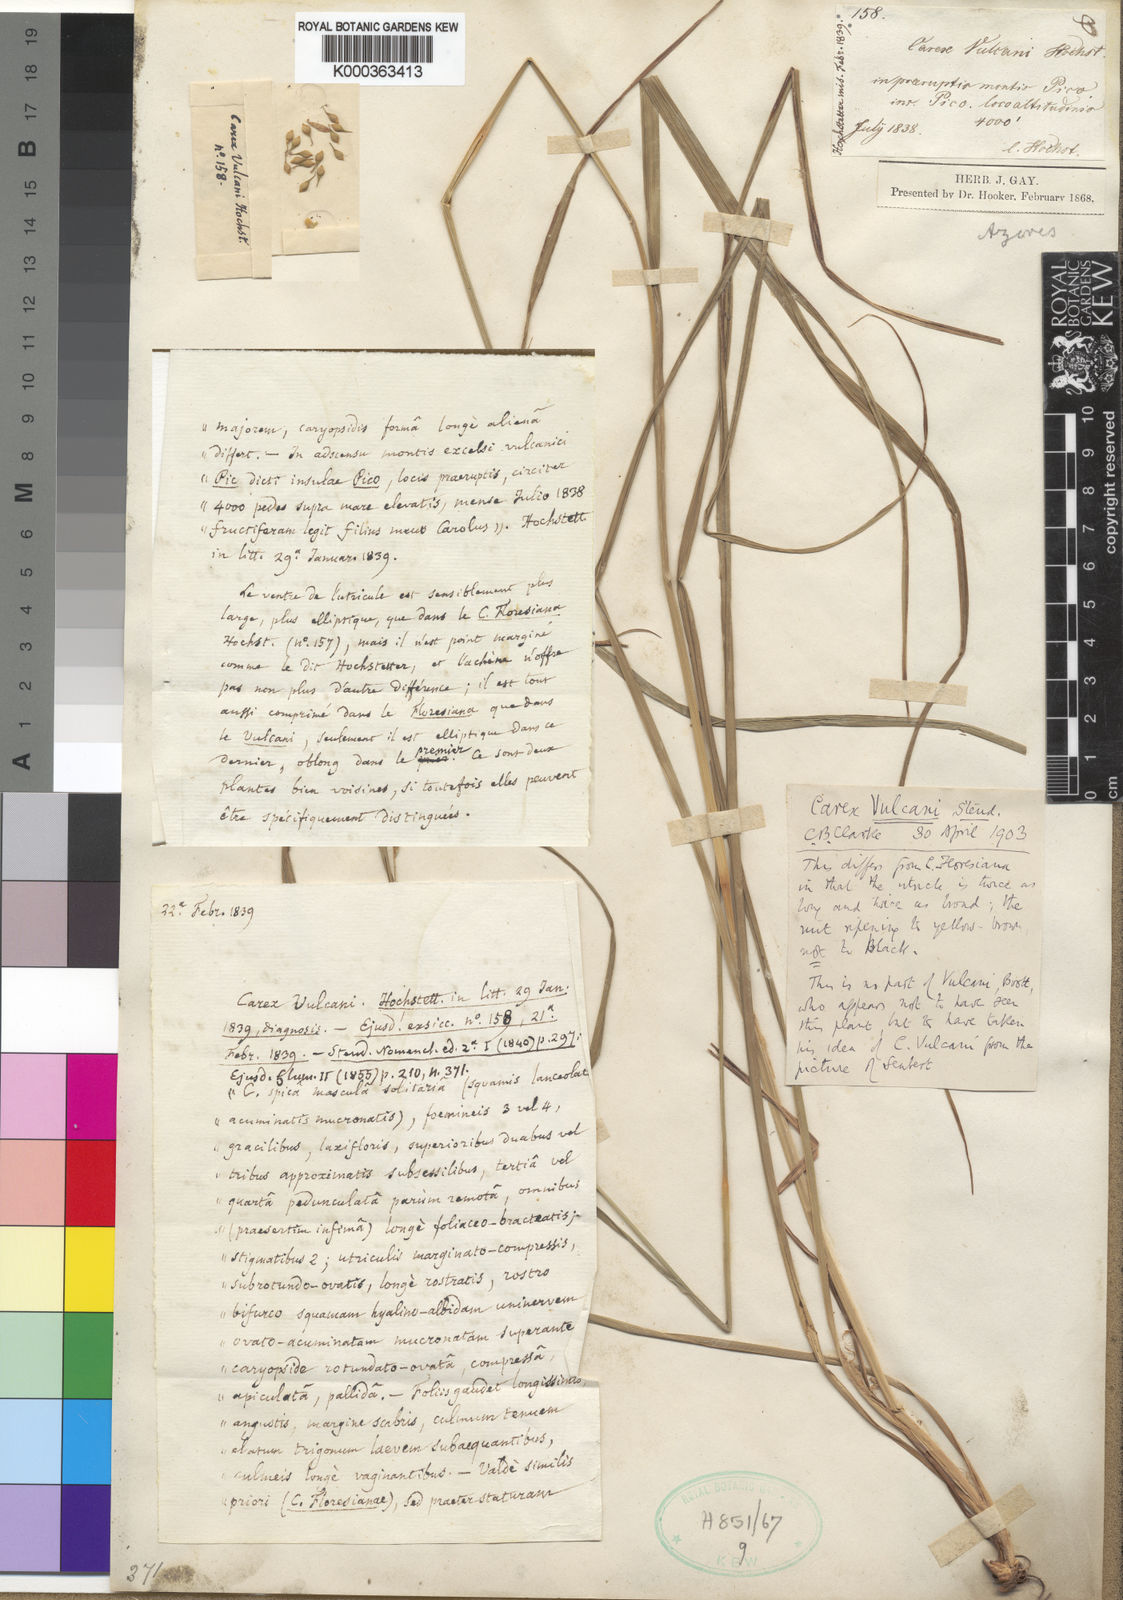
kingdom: Plantae
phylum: Tracheophyta
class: Liliopsida
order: Poales
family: Cyperaceae
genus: Carex
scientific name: Carex vulcani
